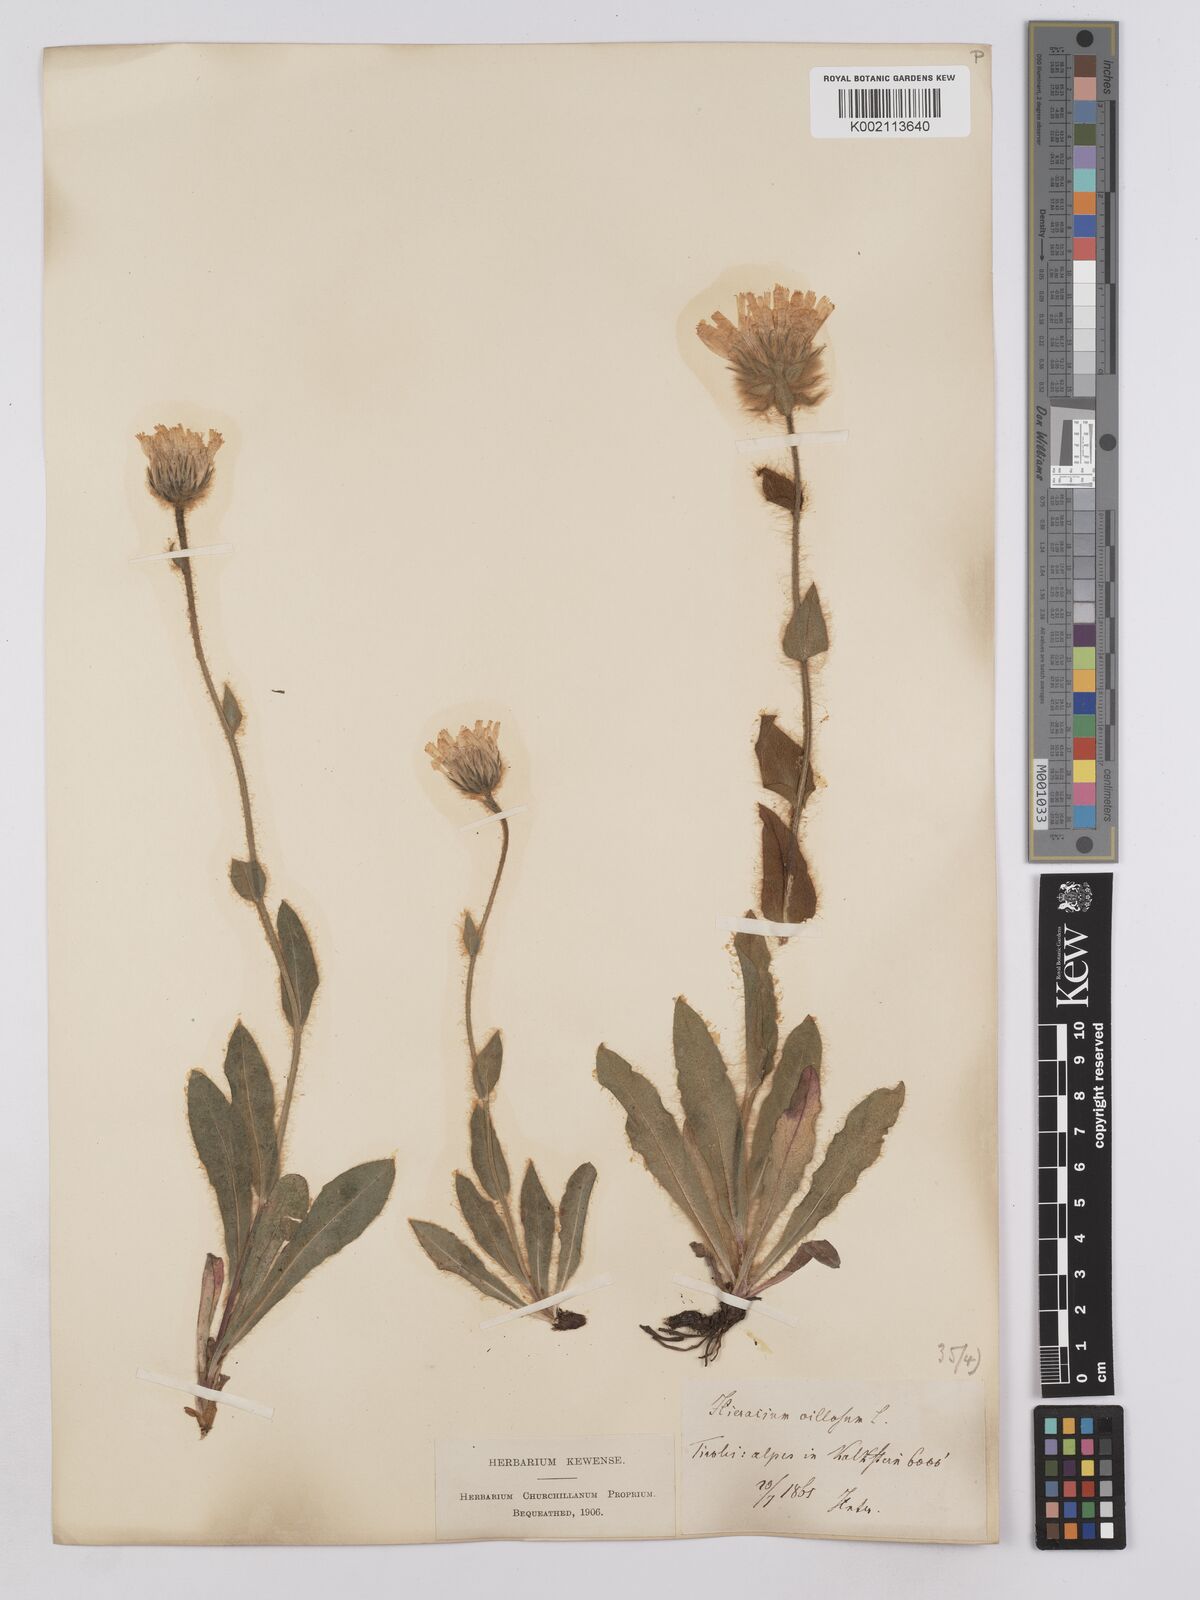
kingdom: Plantae
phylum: Tracheophyta
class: Magnoliopsida
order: Asterales
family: Asteraceae
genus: Hieracium
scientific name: Hieracium villosum
